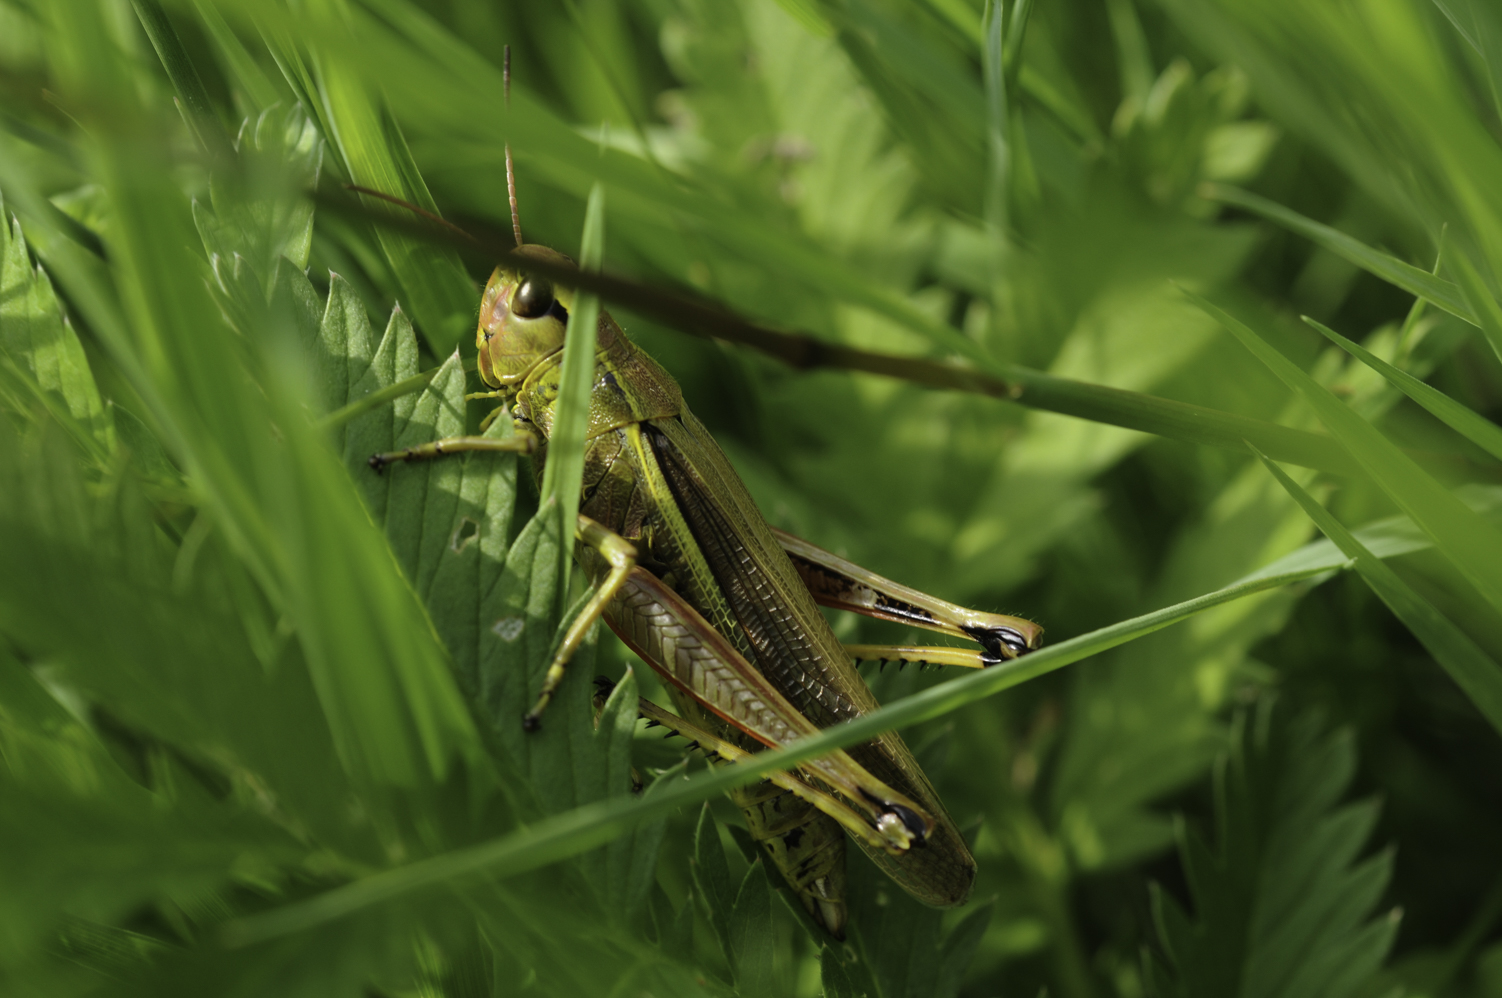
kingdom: Animalia
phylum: Arthropoda
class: Insecta
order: Orthoptera
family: Acrididae
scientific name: Acrididae
